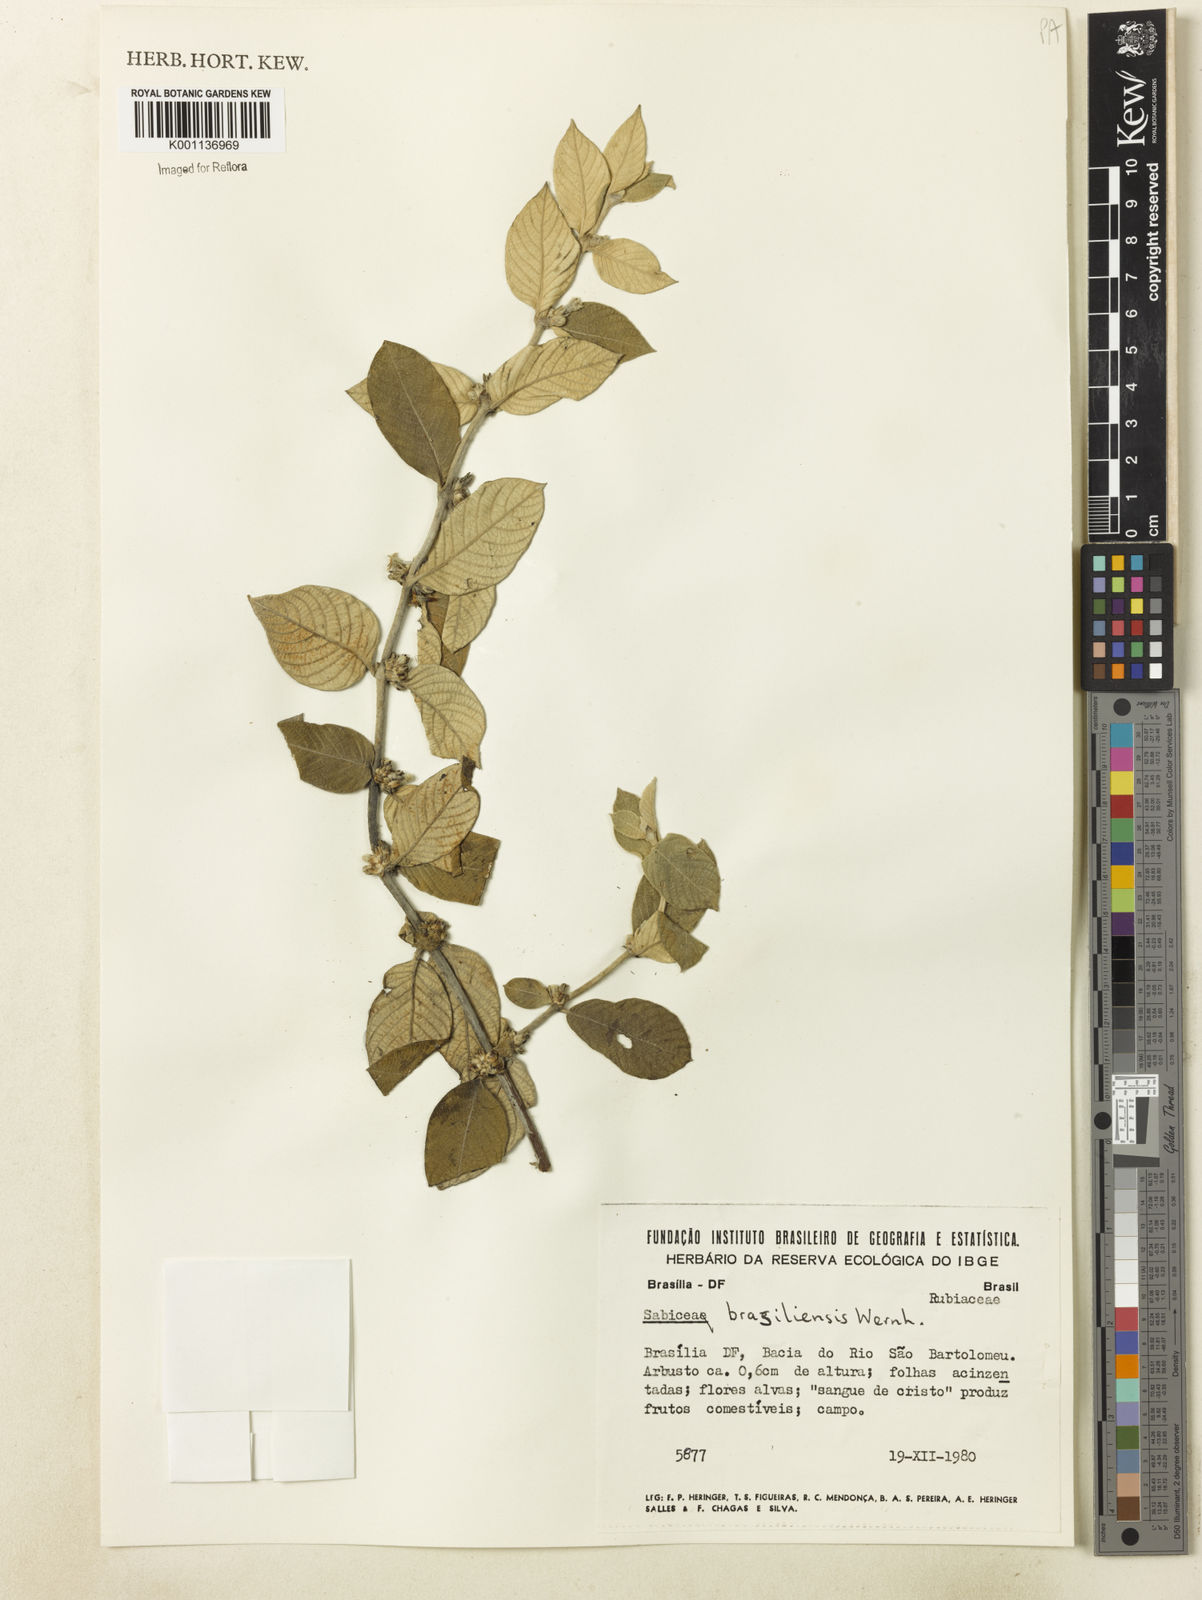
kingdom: Plantae
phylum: Tracheophyta
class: Magnoliopsida
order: Gentianales
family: Rubiaceae
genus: Sabicea
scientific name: Sabicea brasiliensis
